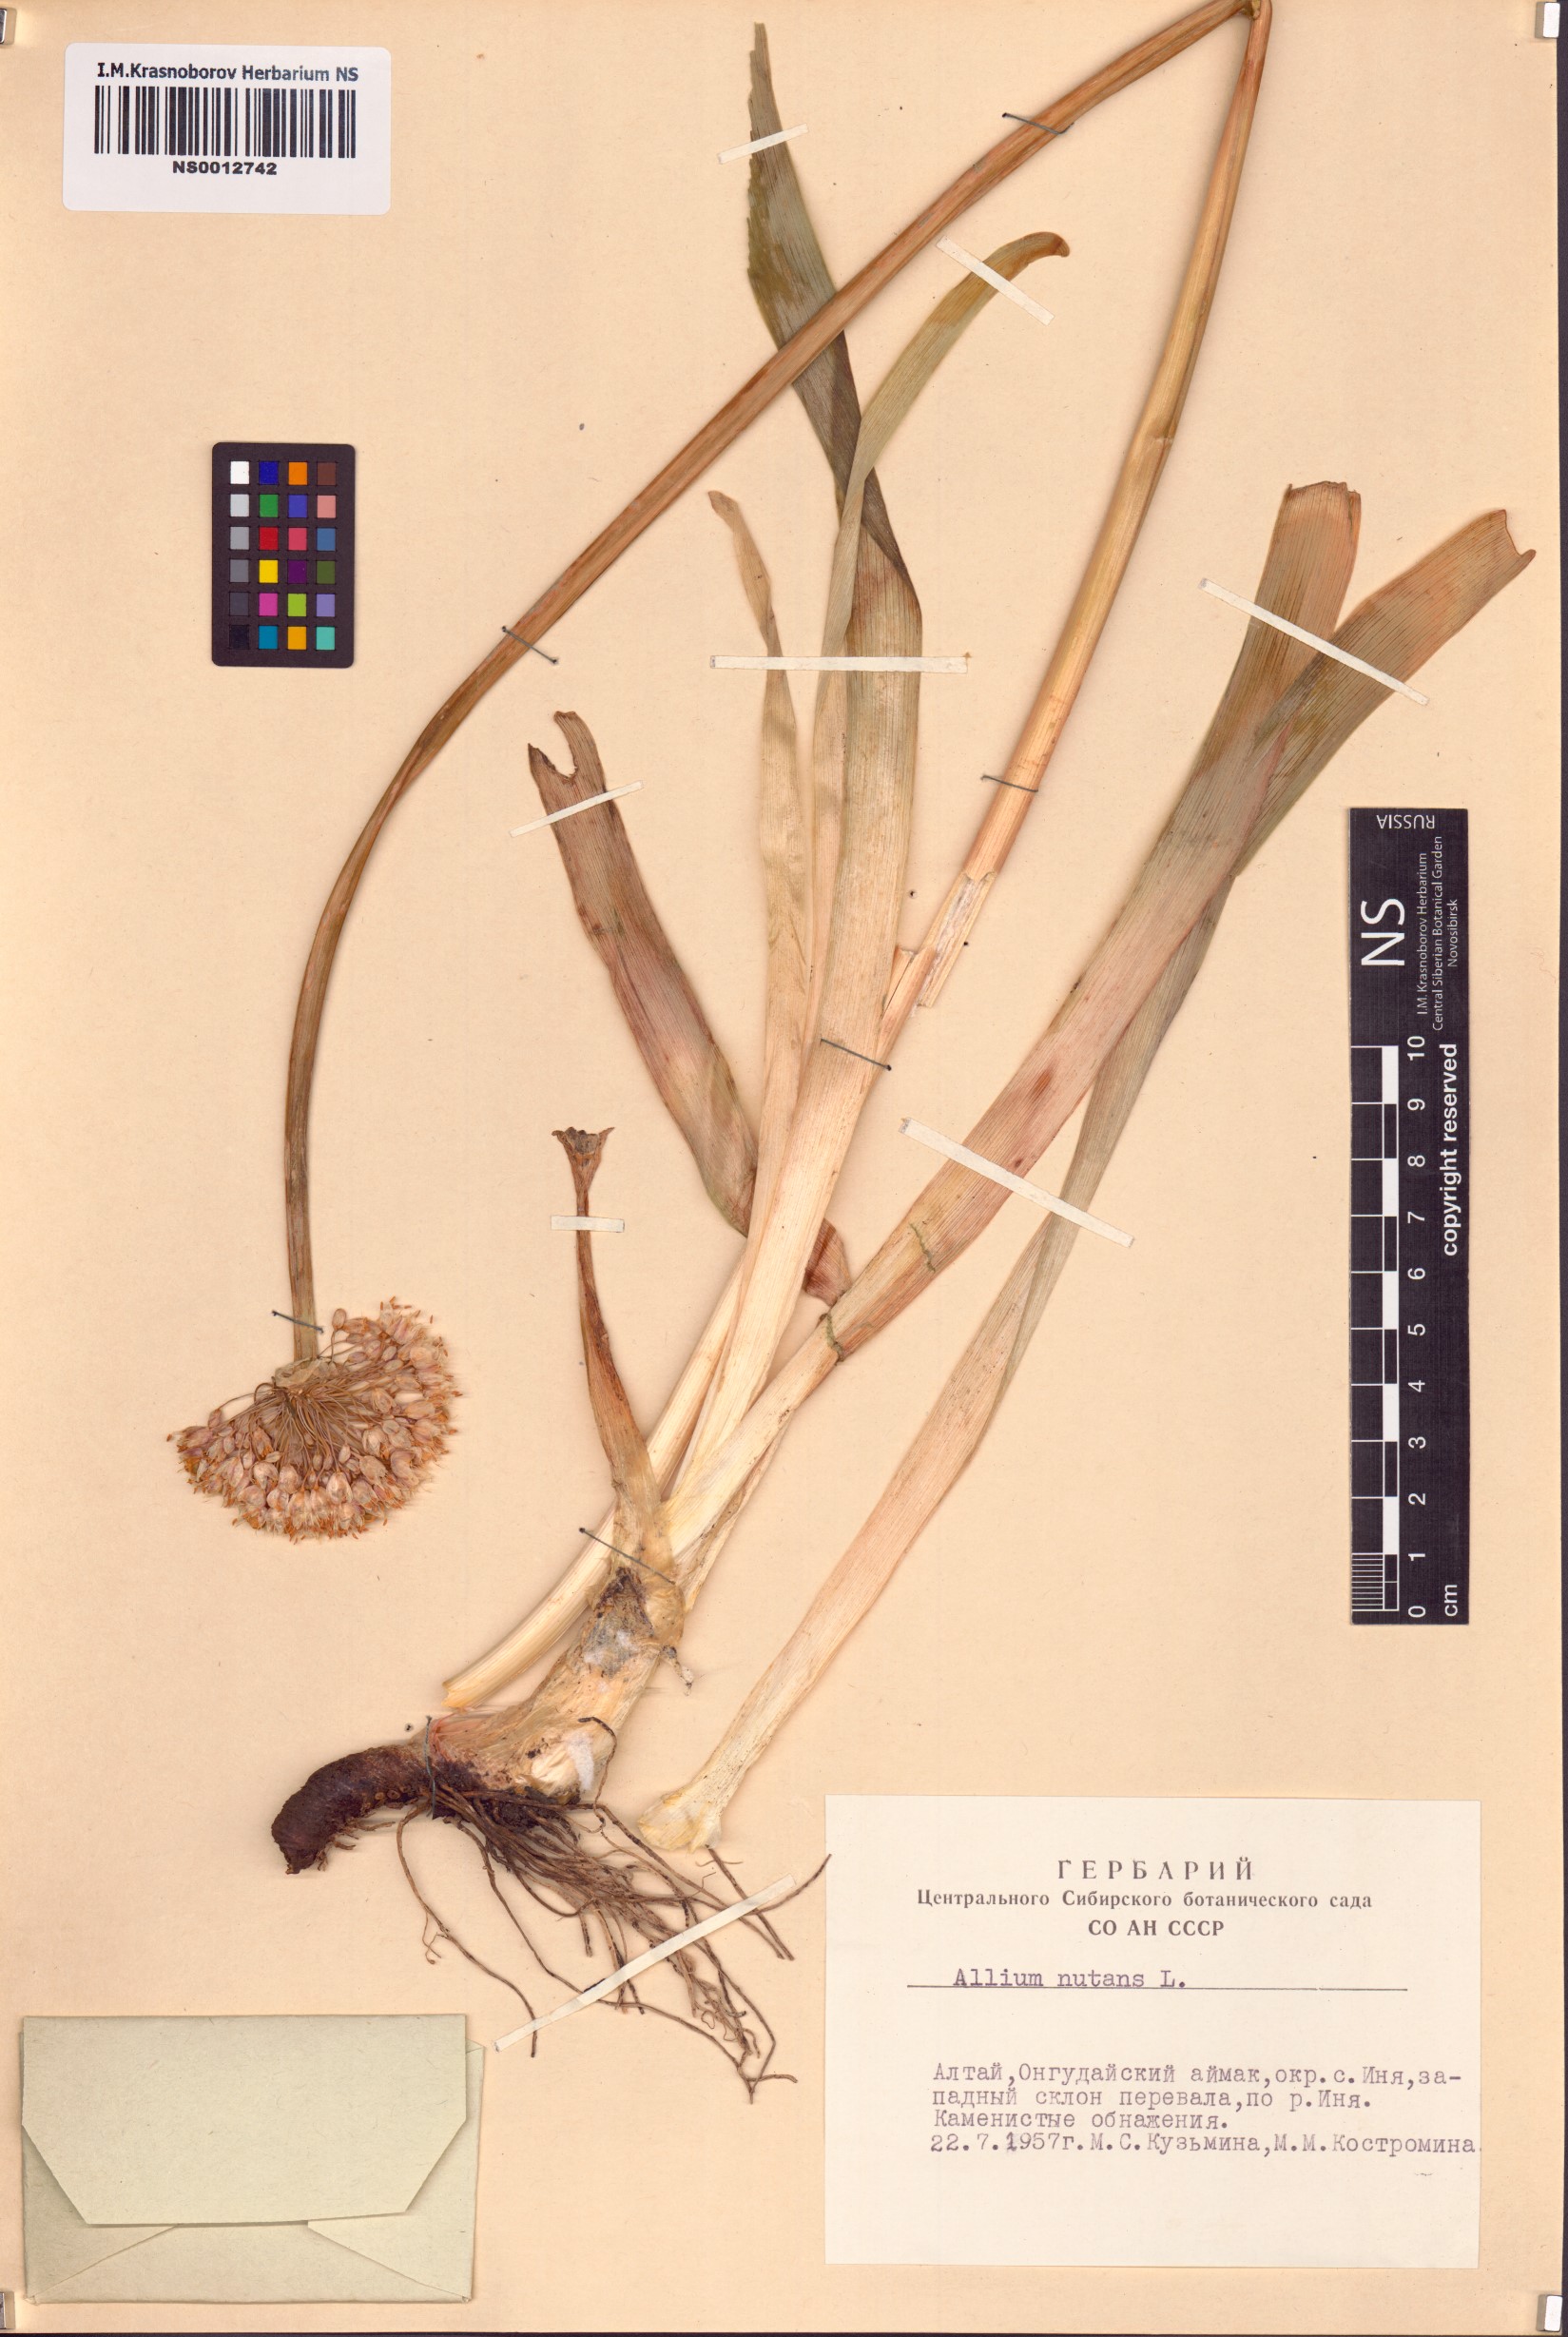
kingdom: Plantae
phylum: Tracheophyta
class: Liliopsida
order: Asparagales
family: Amaryllidaceae
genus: Allium
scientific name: Allium nutans
